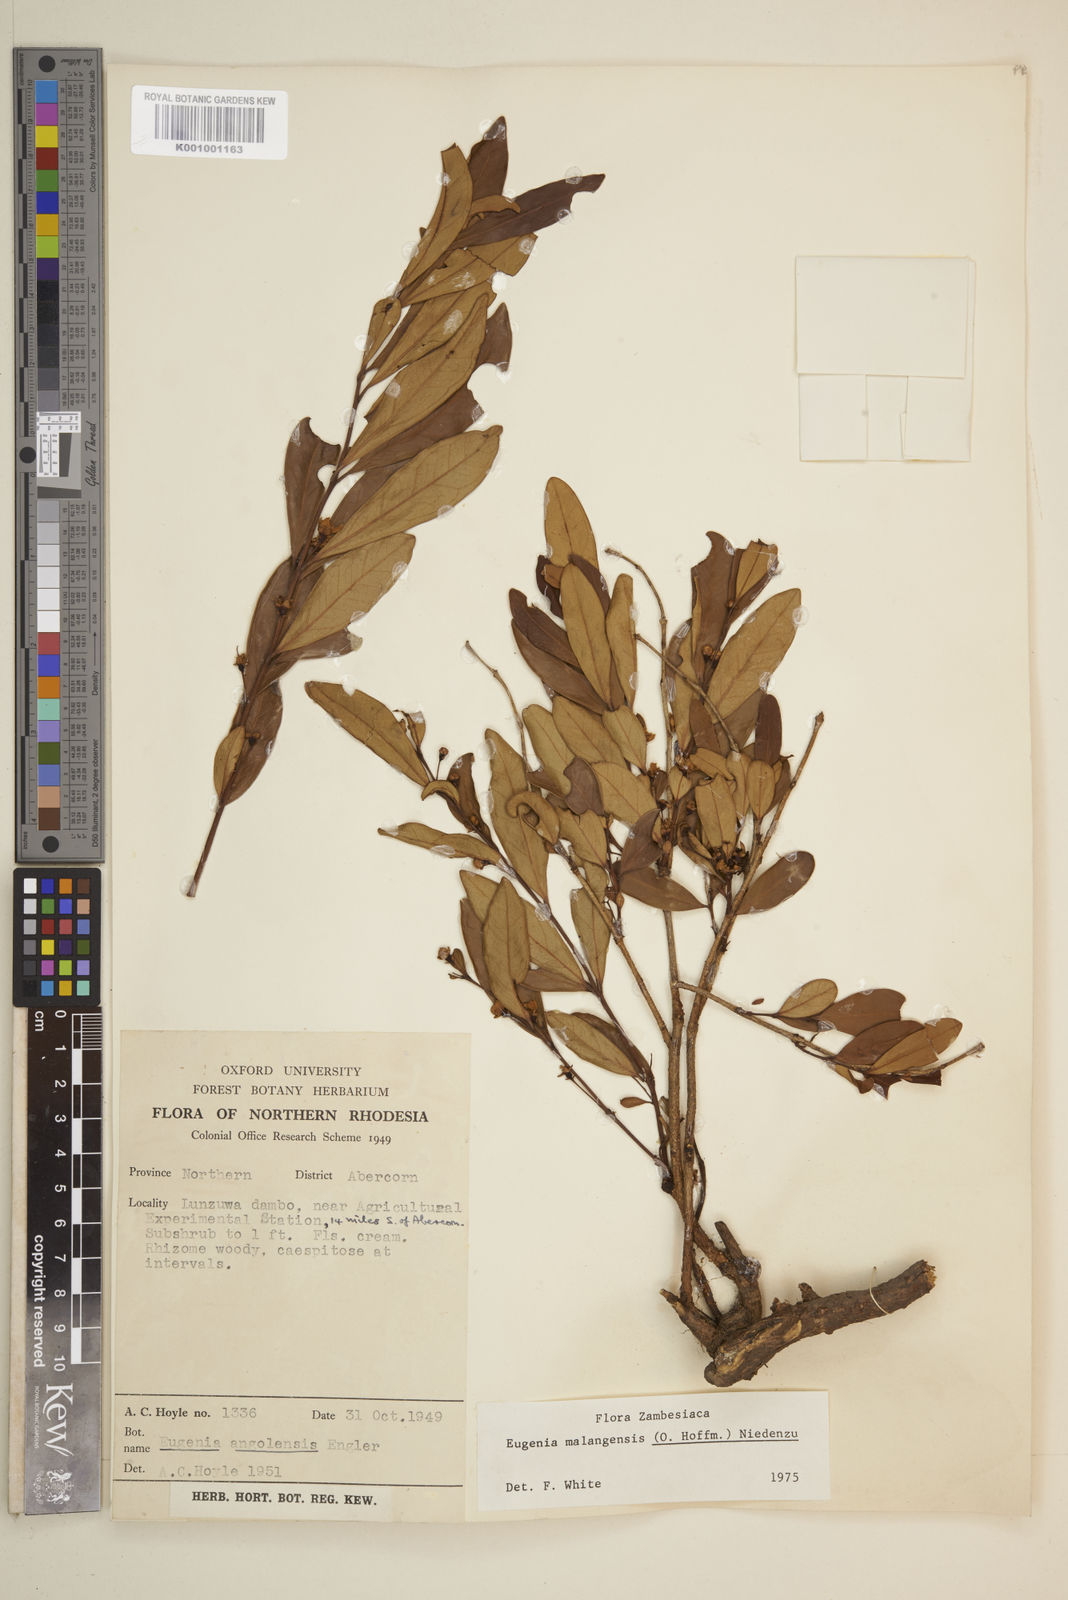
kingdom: Plantae
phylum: Tracheophyta
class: Magnoliopsida
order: Myrtales
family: Myrtaceae
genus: Eugenia
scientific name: Eugenia malangensis
